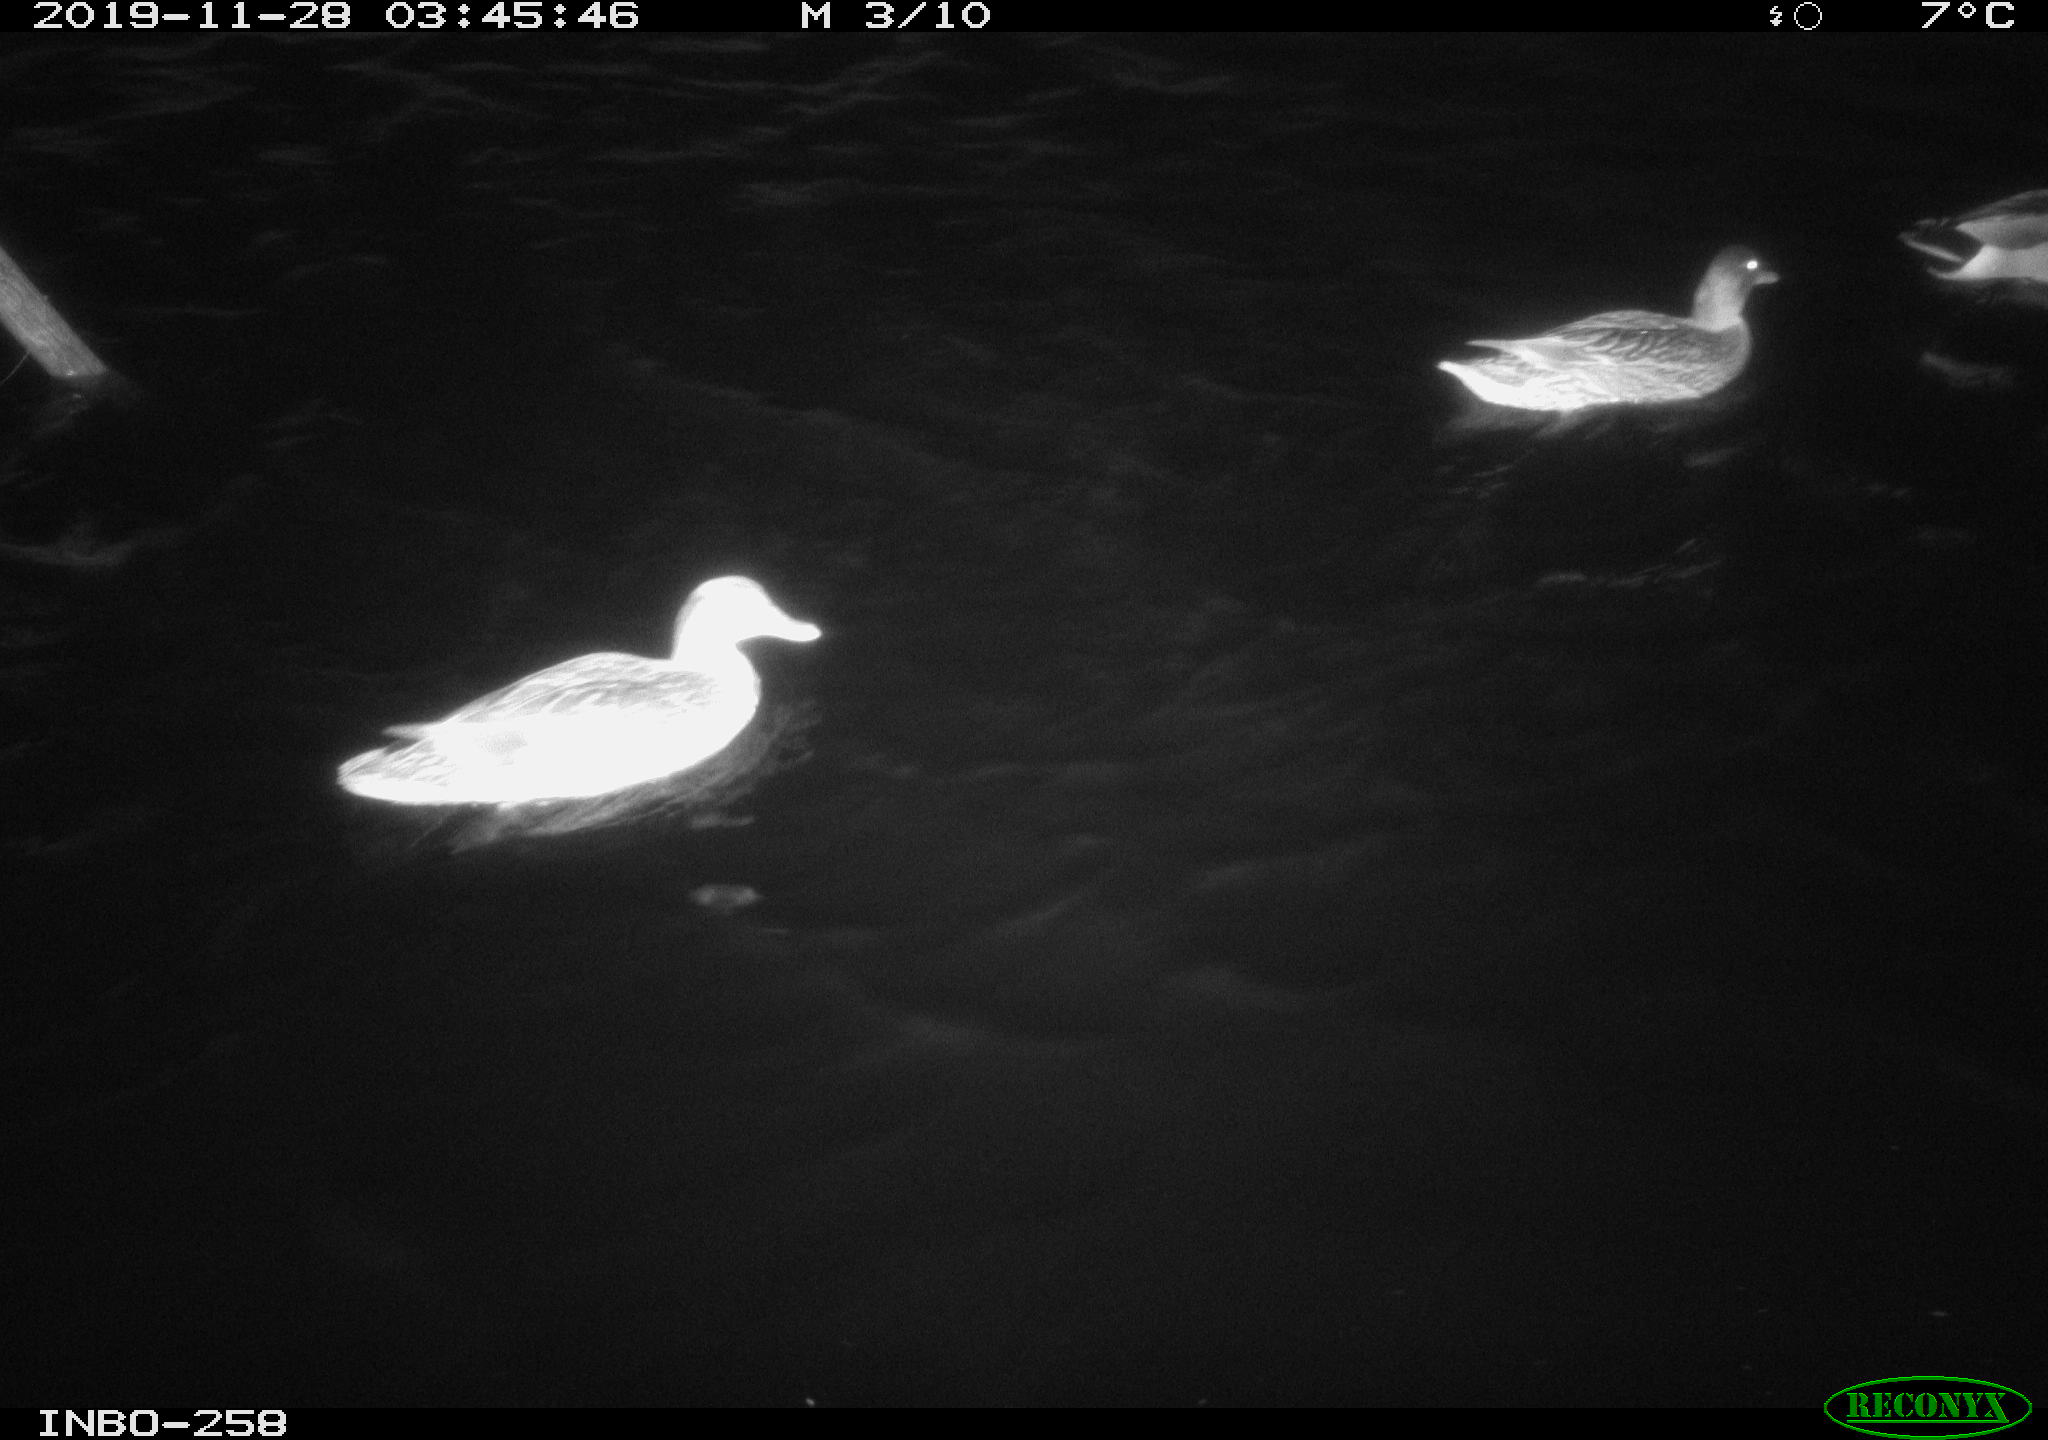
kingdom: Animalia
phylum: Chordata
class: Aves
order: Anseriformes
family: Anatidae
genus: Anas
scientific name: Anas platyrhynchos
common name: Mallard
